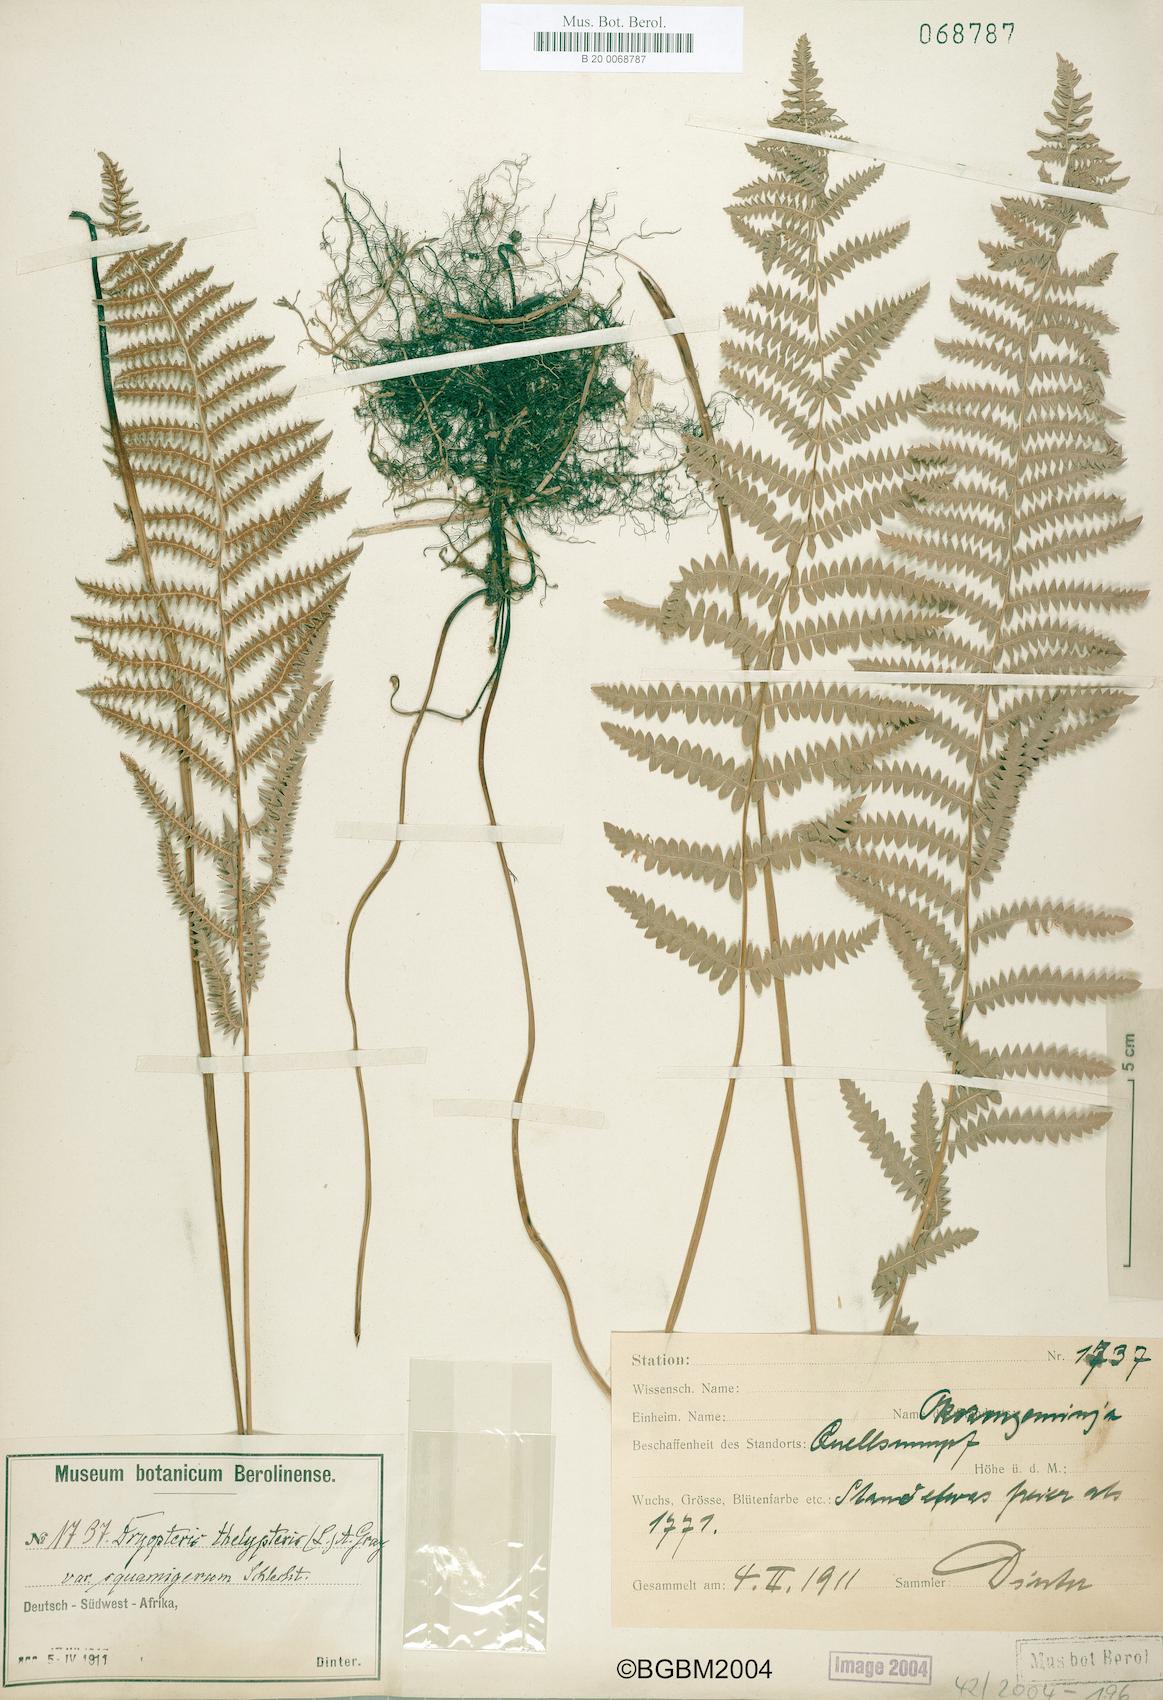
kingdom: Plantae
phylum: Tracheophyta
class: Polypodiopsida
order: Polypodiales
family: Thelypteridaceae
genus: Thelypteris
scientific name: Thelypteris palustris
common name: Marsh fern
